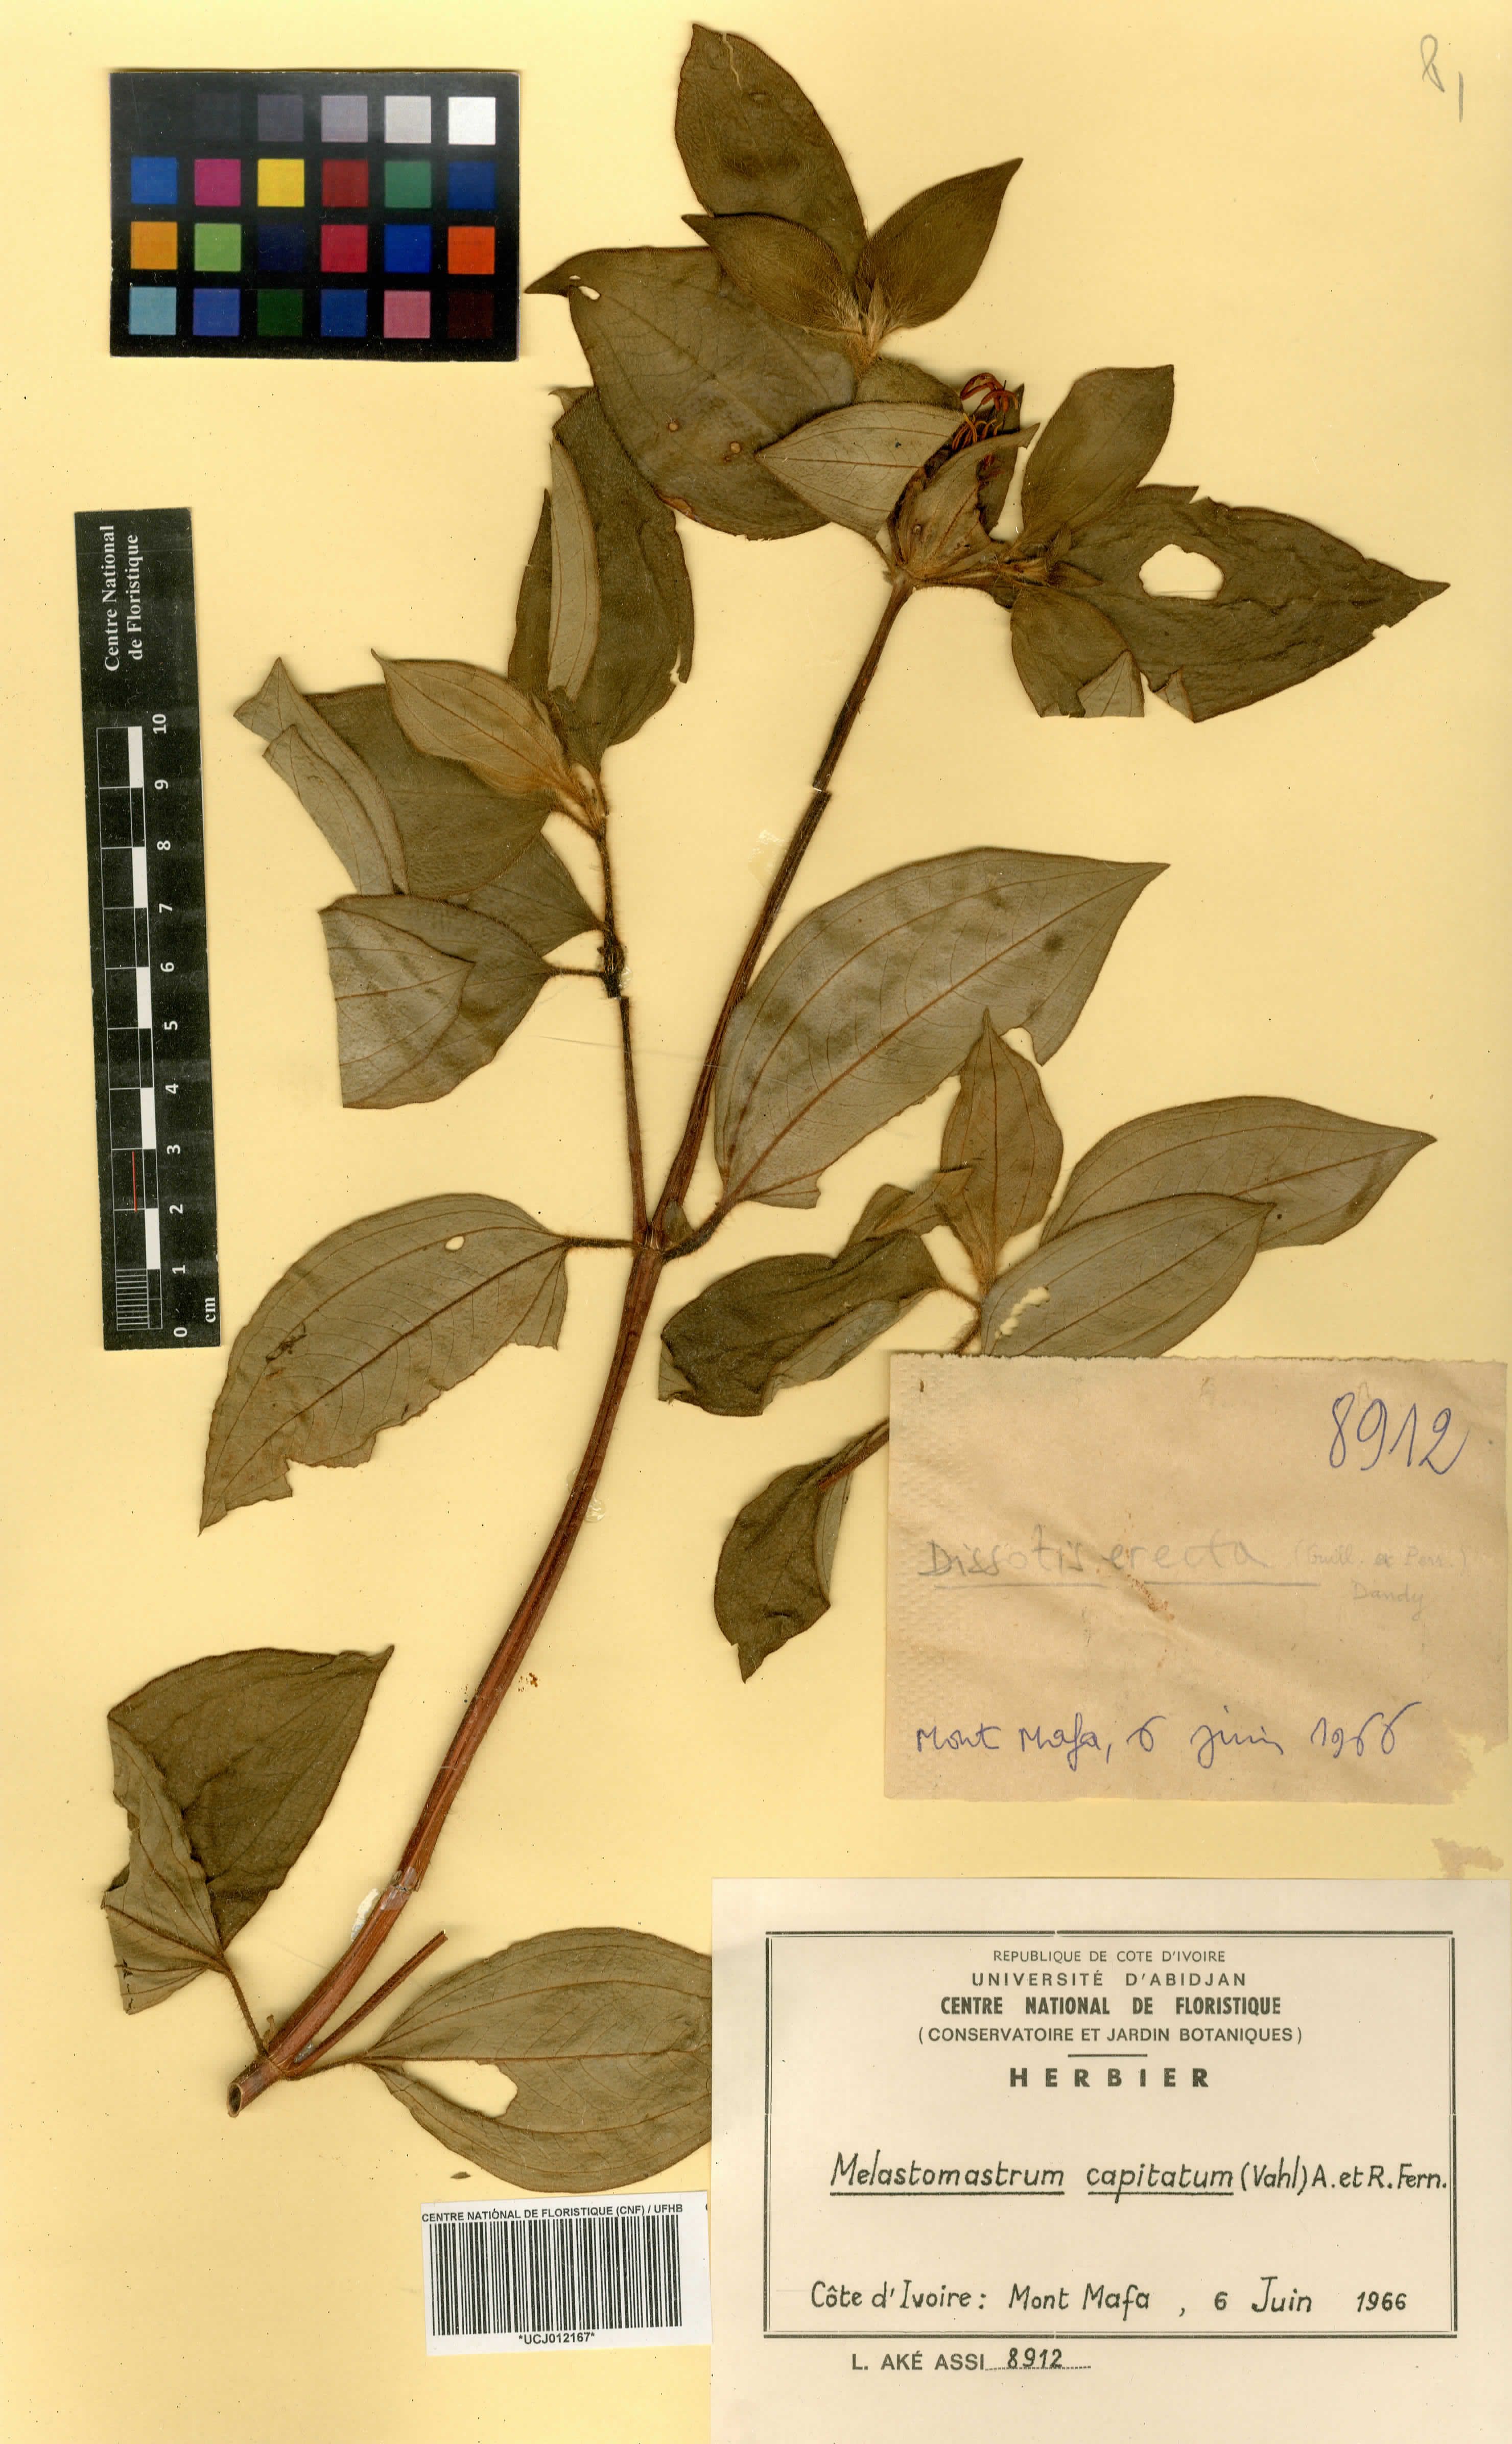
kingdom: Plantae
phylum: Tracheophyta
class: Magnoliopsida
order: Myrtales
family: Melastomataceae
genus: Melastomastrum
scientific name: Melastomastrum capitatum
